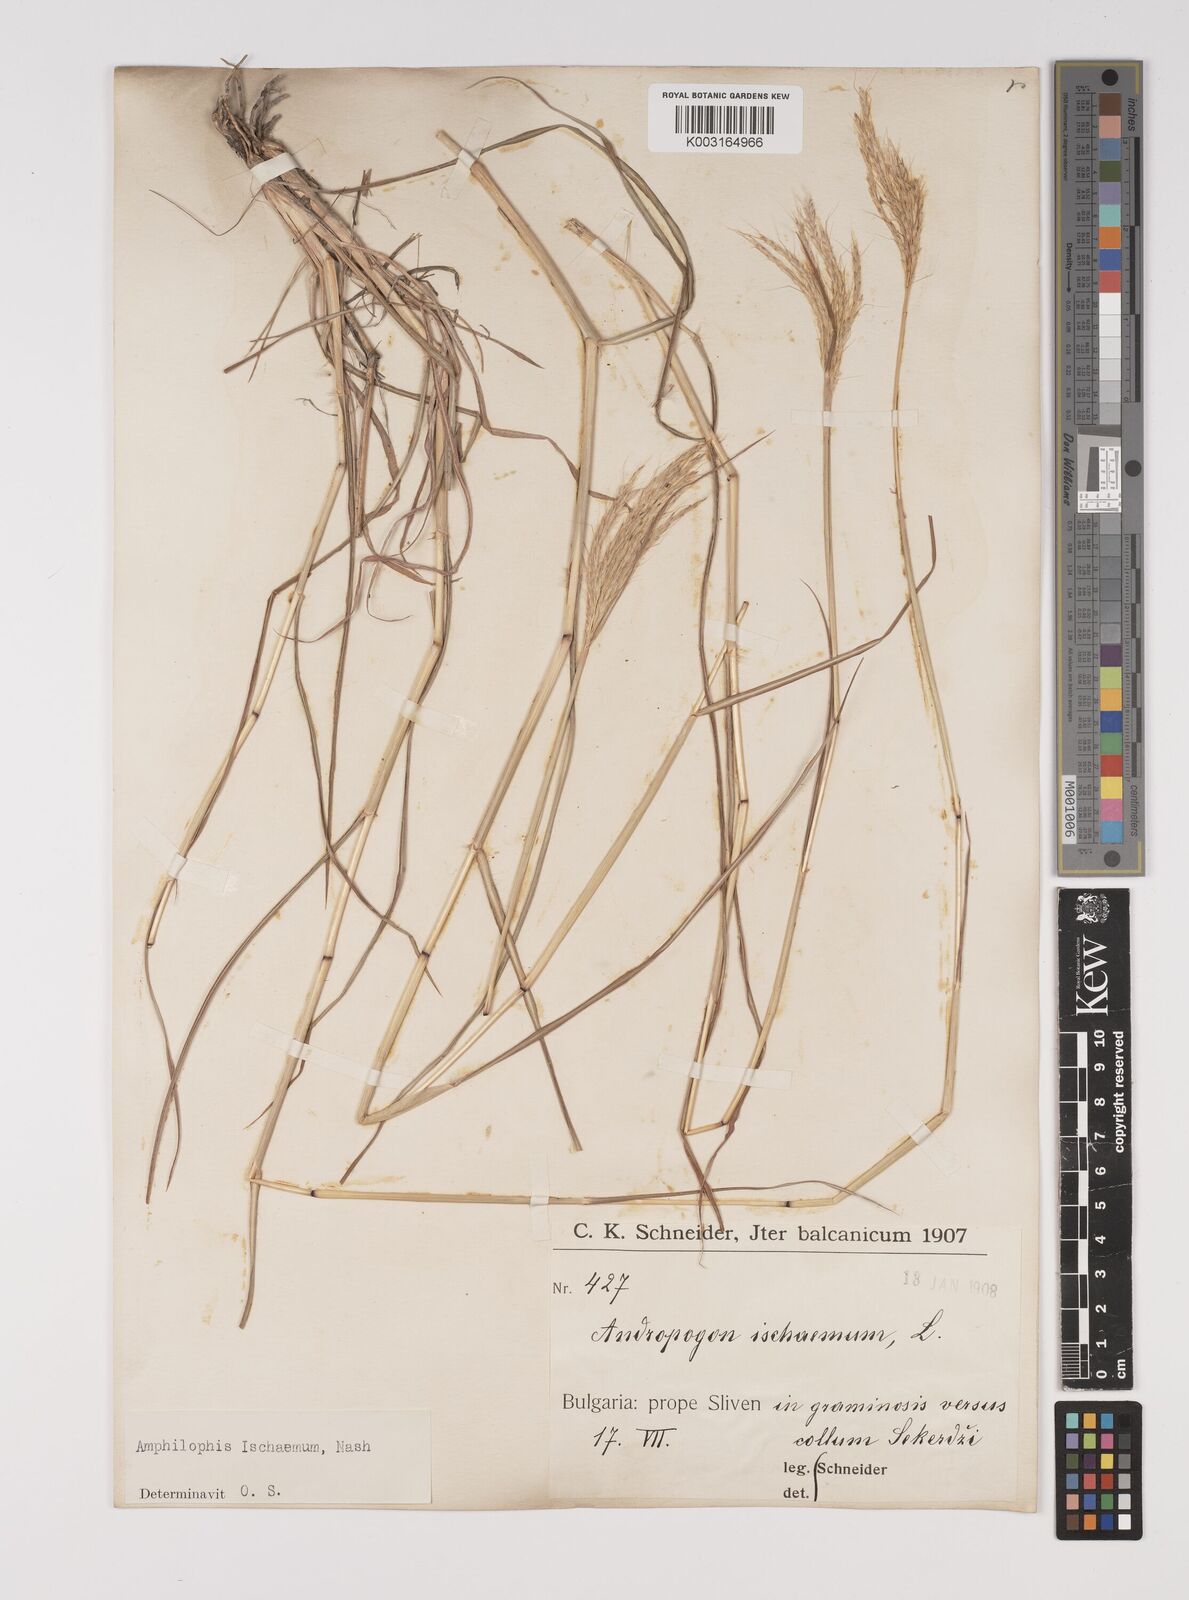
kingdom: Plantae
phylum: Tracheophyta
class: Liliopsida
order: Poales
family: Poaceae
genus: Bothriochloa
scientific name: Bothriochloa ischaemum
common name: Yellow bluestem
